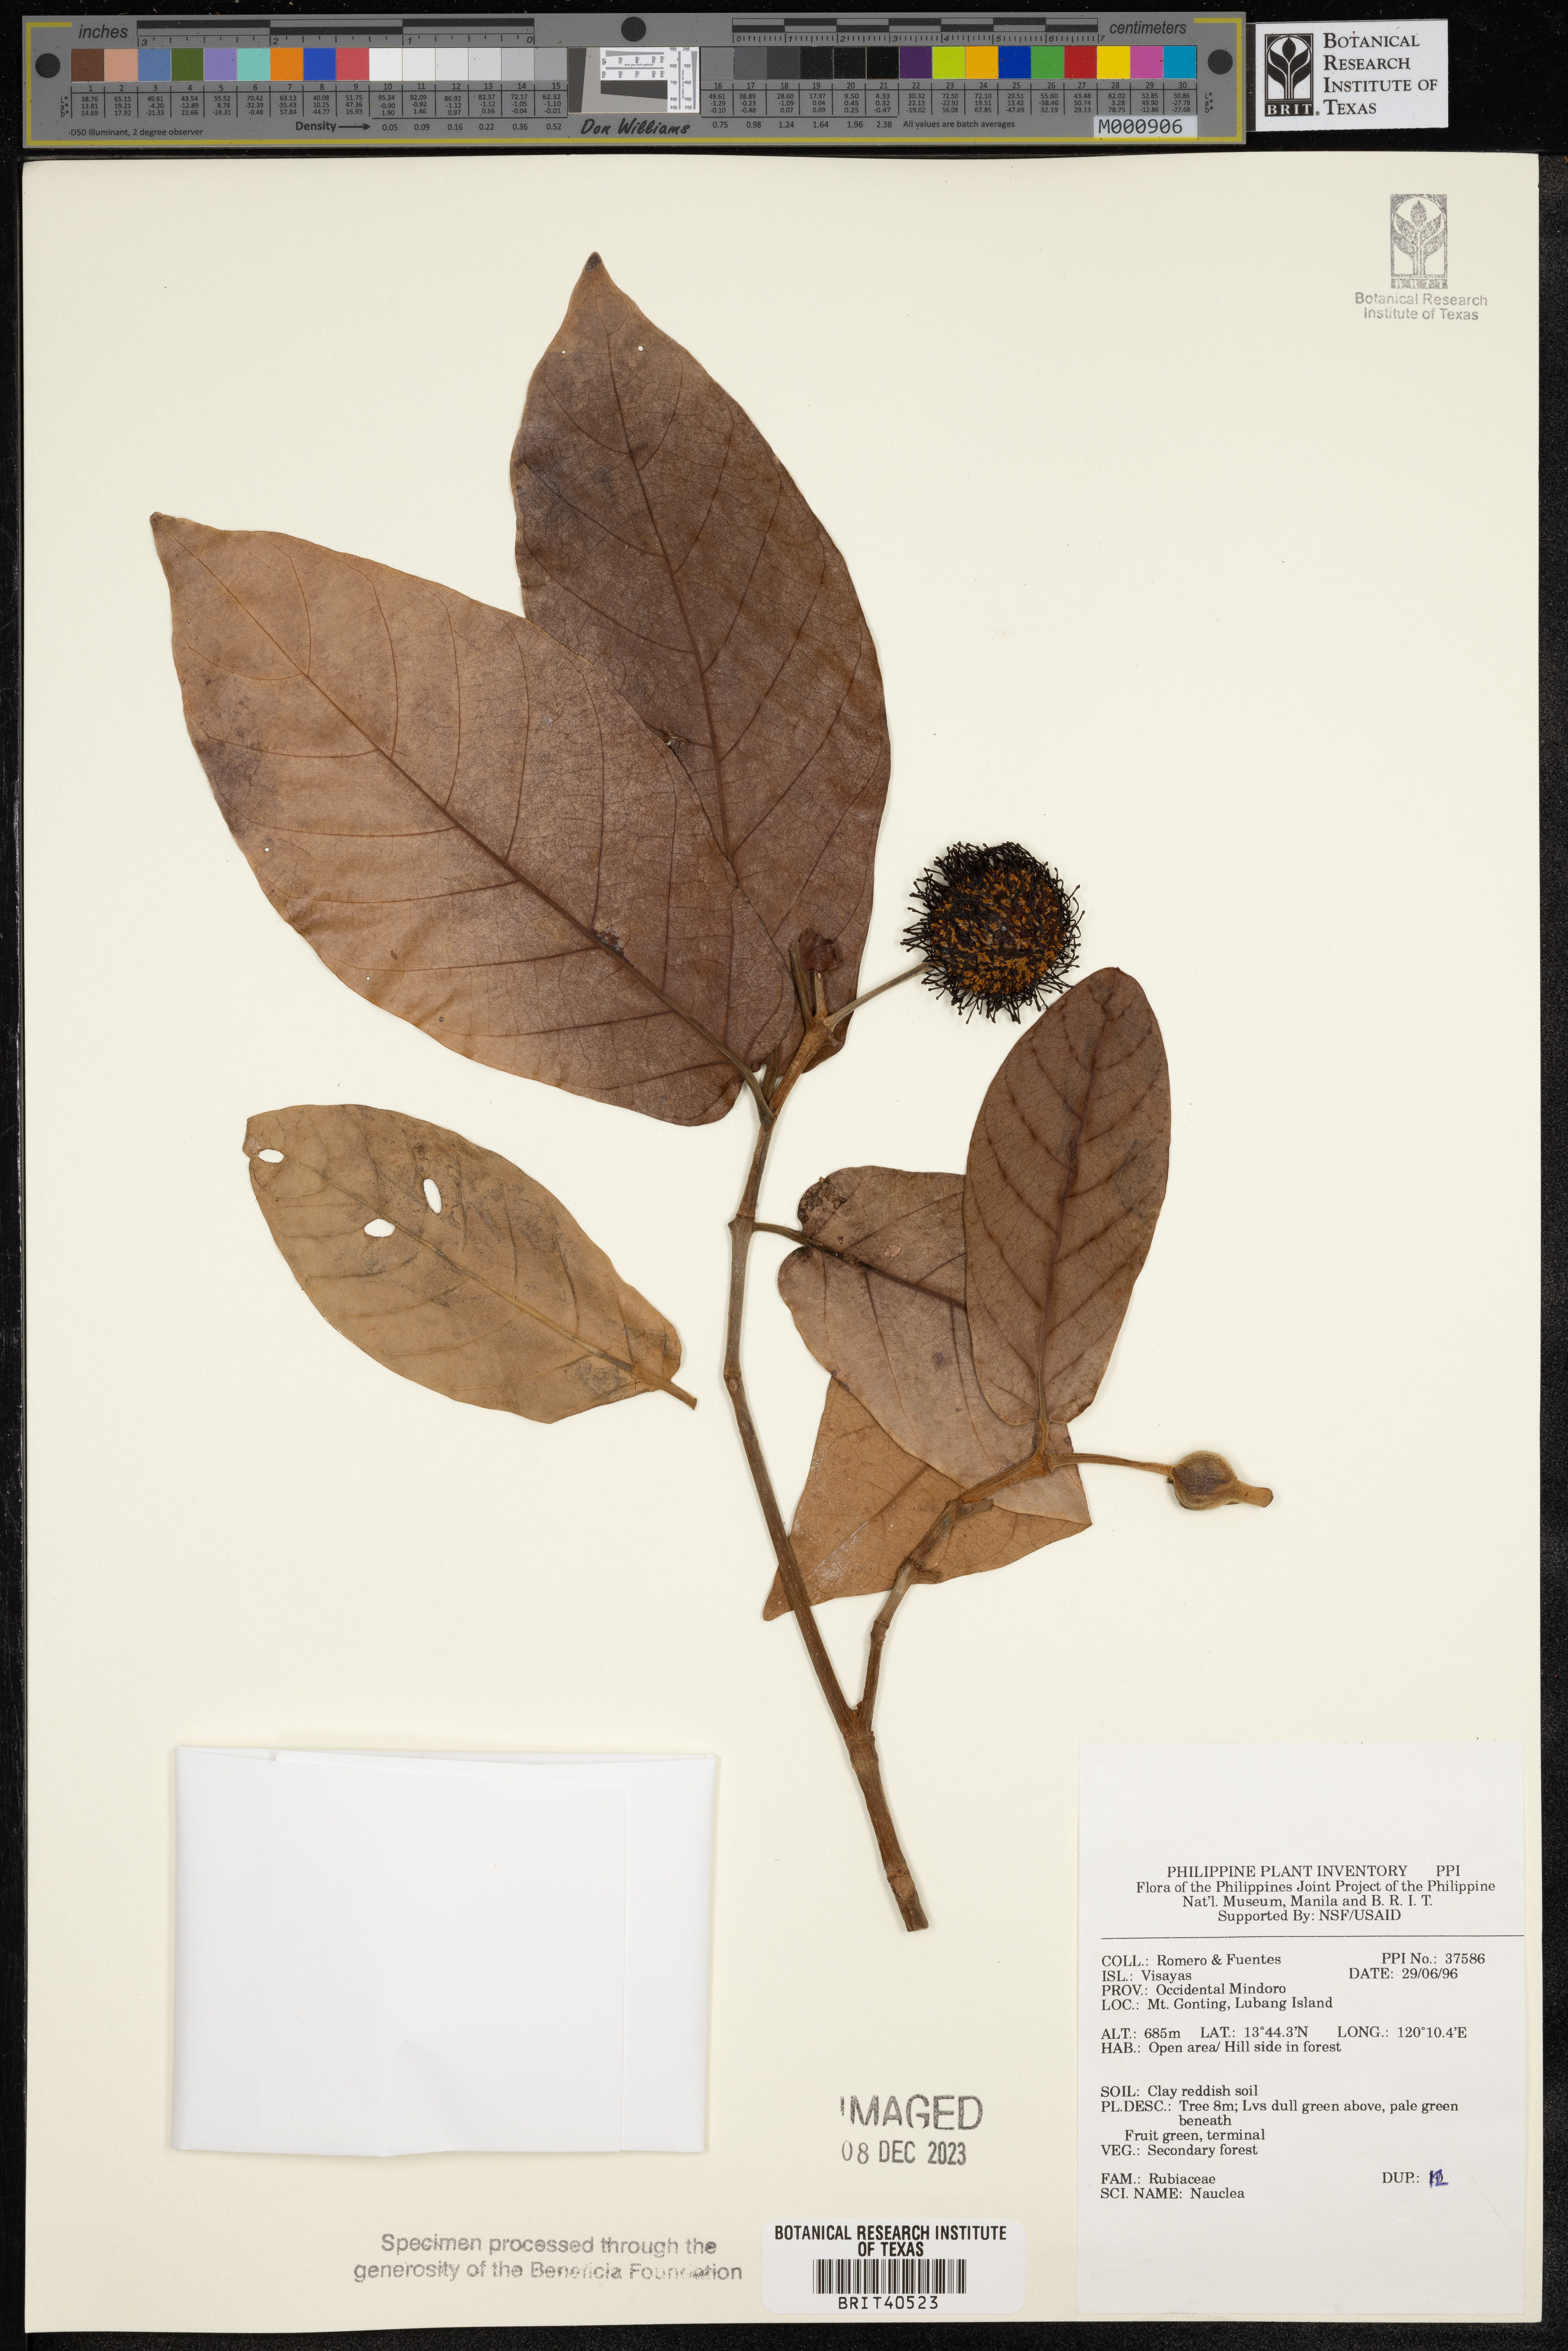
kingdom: Plantae
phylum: Tracheophyta
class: Magnoliopsida
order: Gentianales
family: Rubiaceae
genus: Nauclea
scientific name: Nauclea
